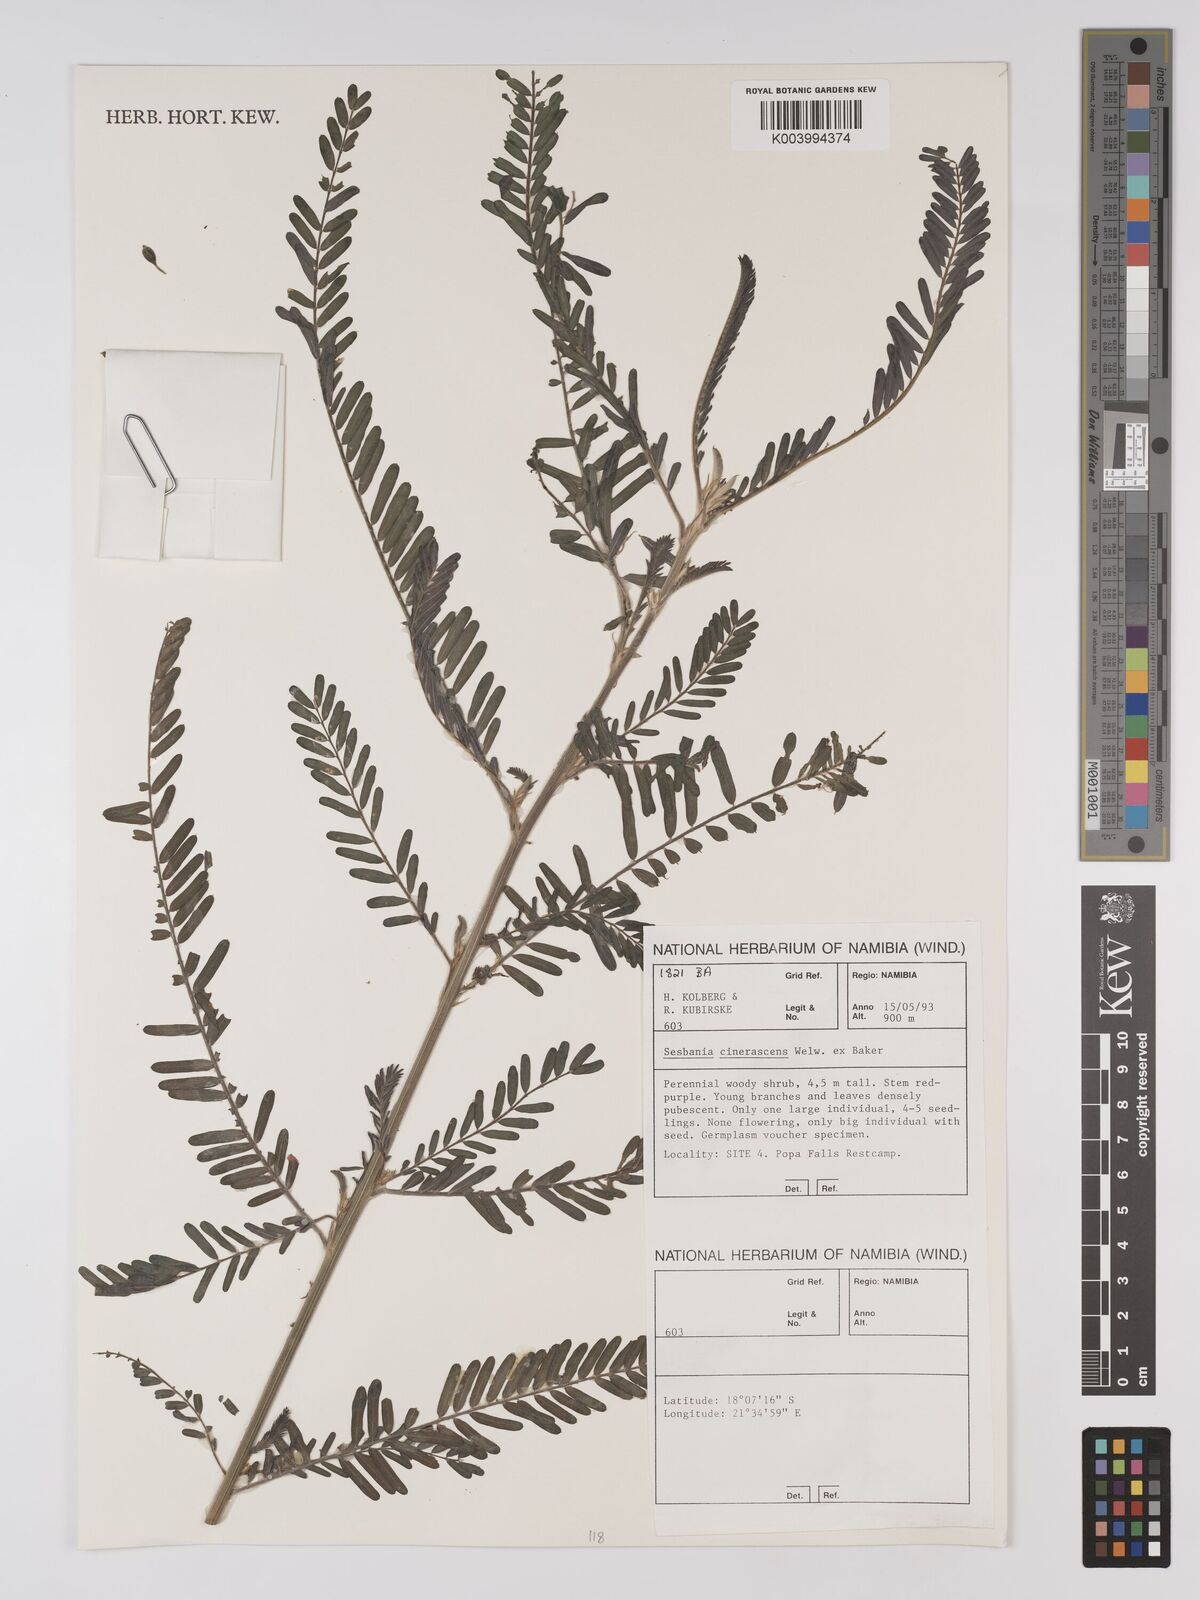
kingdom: Plantae
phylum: Tracheophyta
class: Magnoliopsida
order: Fabales
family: Fabaceae
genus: Sesbania
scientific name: Sesbania cinerascens
